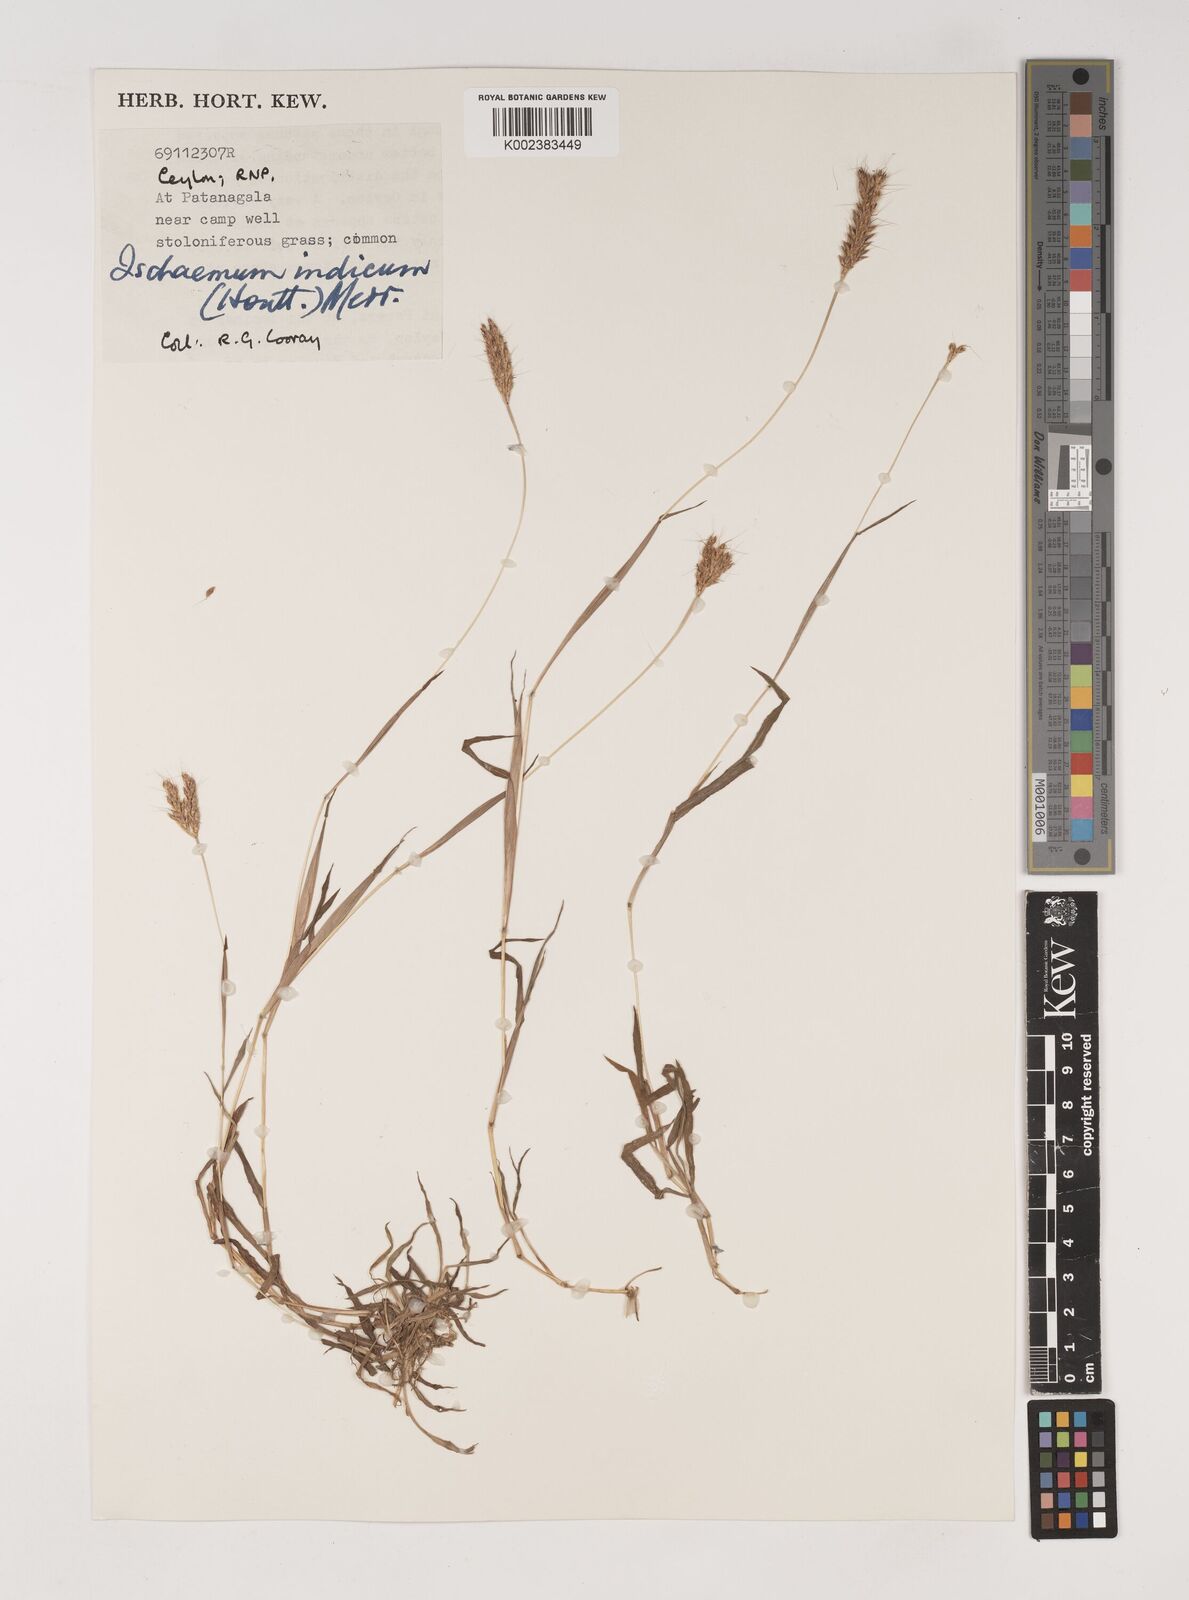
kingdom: Plantae
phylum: Tracheophyta
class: Liliopsida
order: Poales
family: Poaceae
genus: Polytrias
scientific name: Polytrias indica
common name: Indian murainagrass
